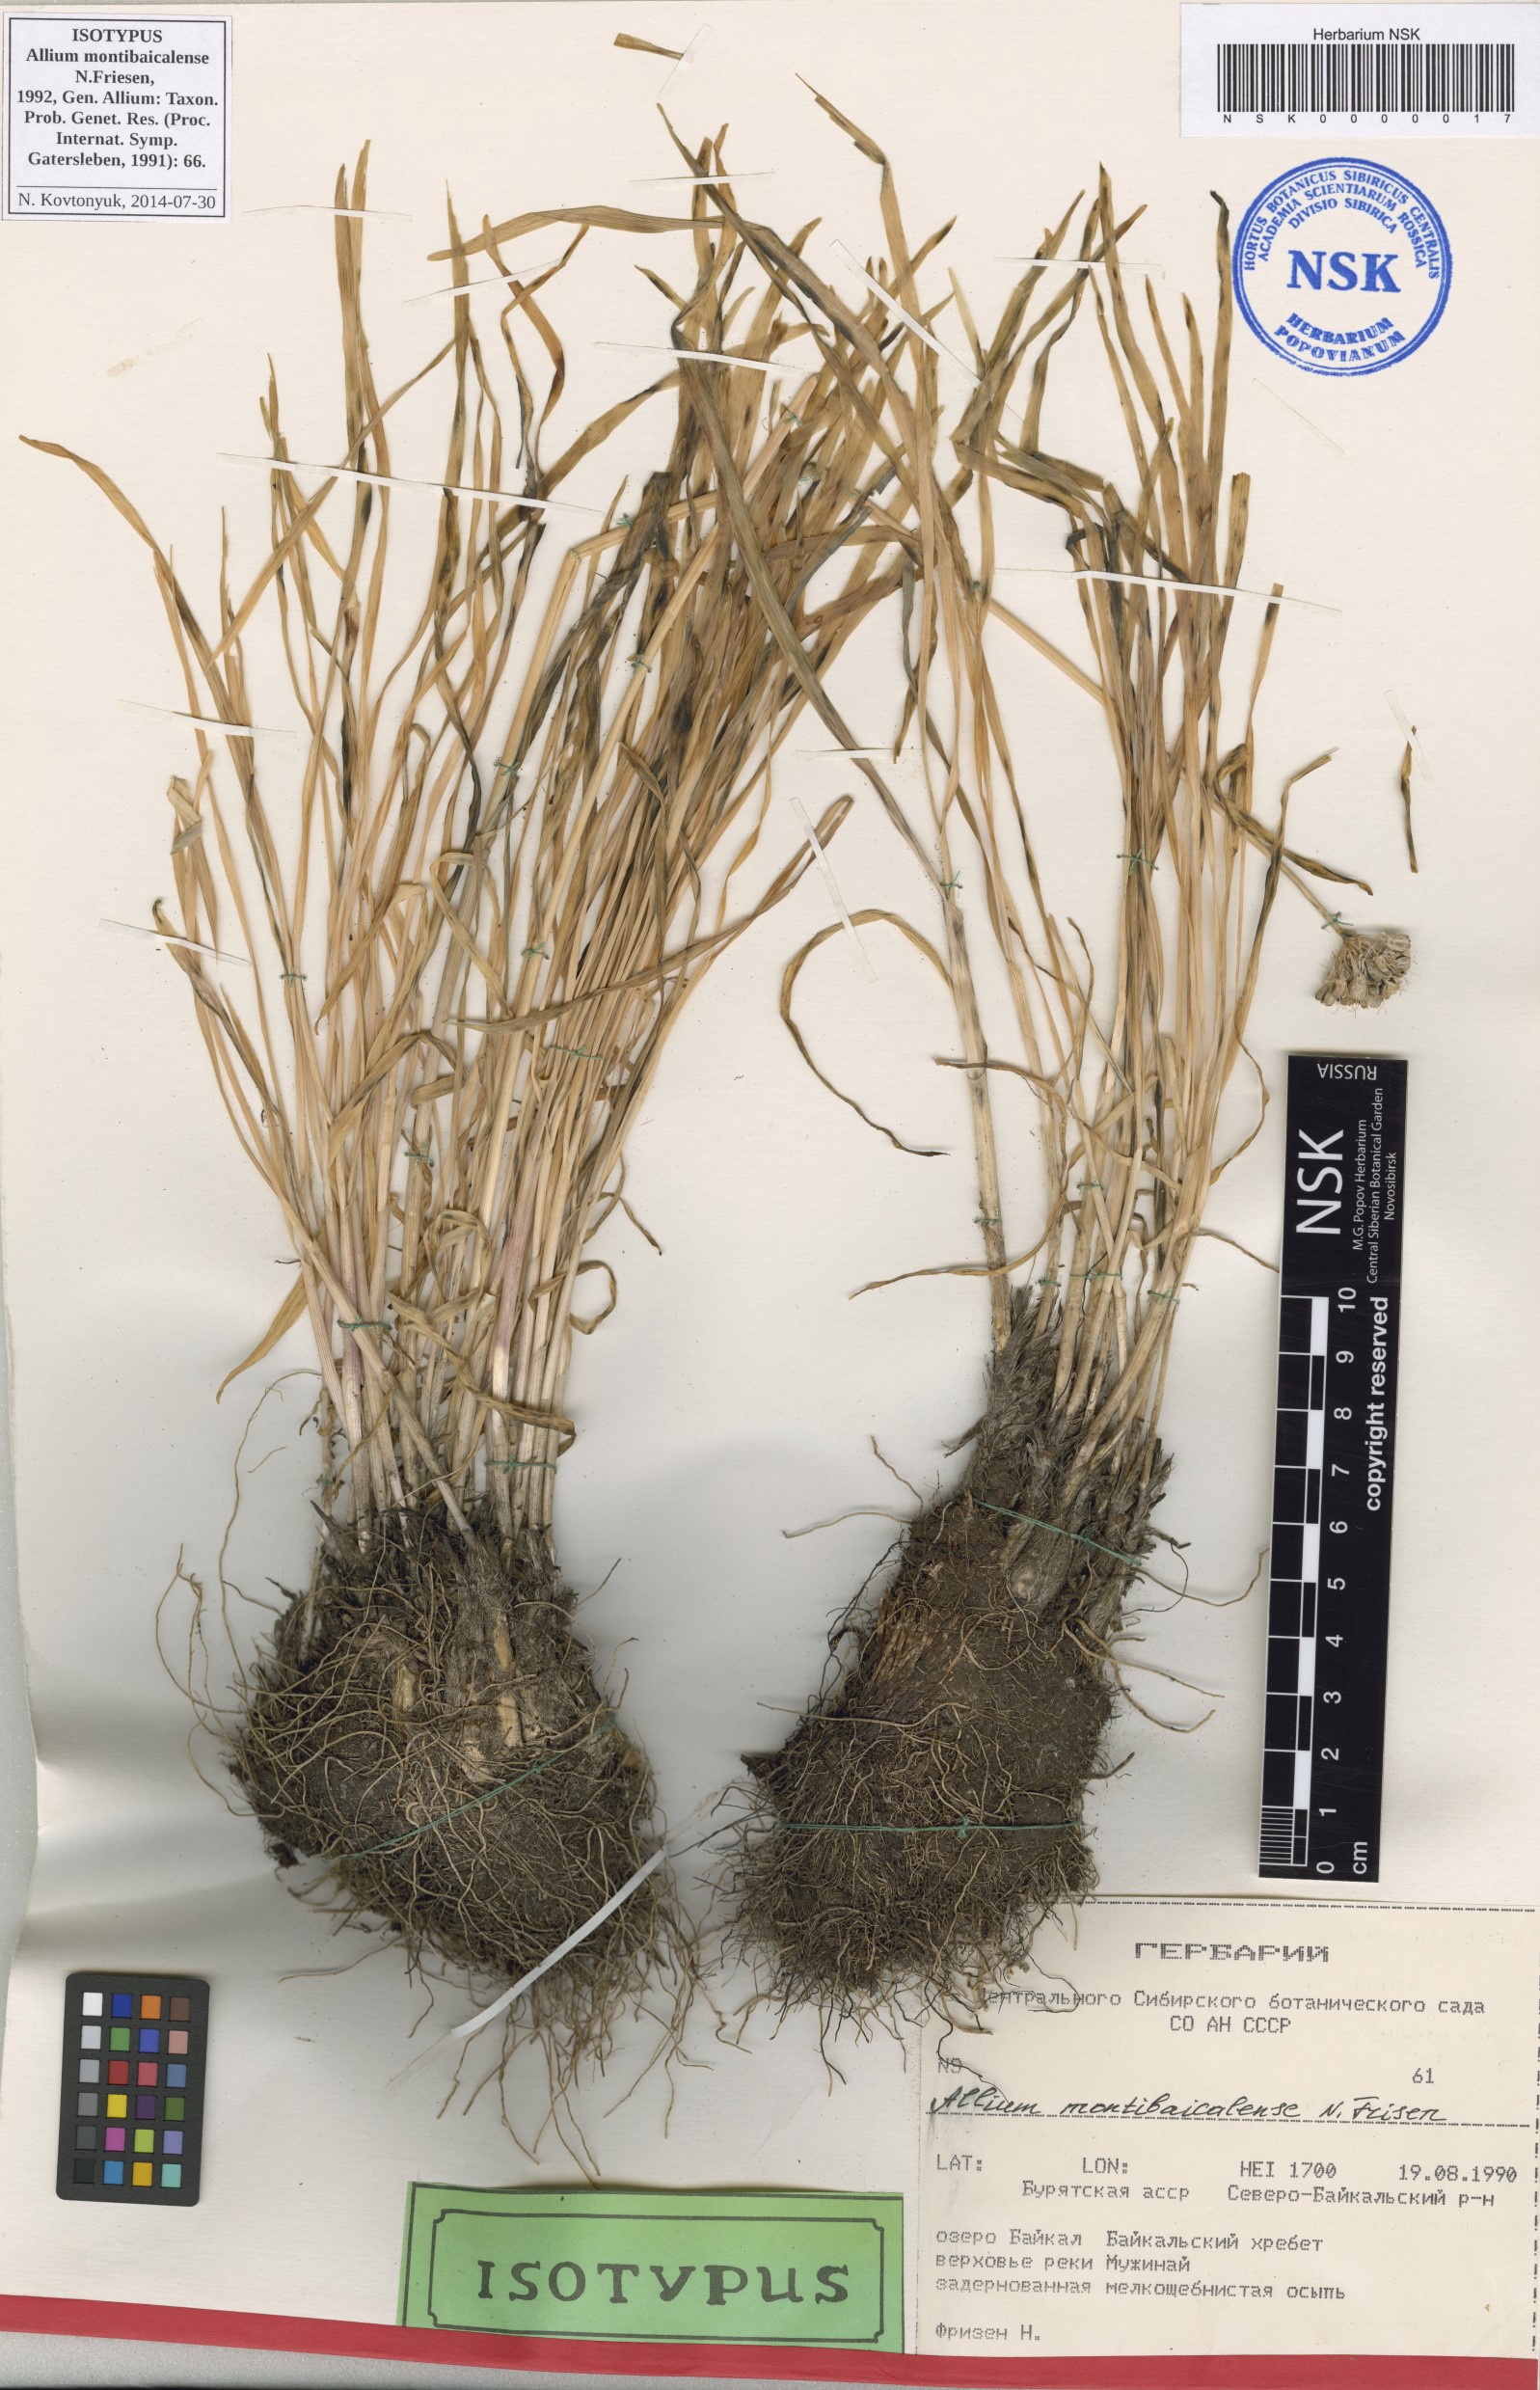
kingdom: Plantae
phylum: Tracheophyta
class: Liliopsida
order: Asparagales
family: Amaryllidaceae
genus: Allium
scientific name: Allium montibaicalense
